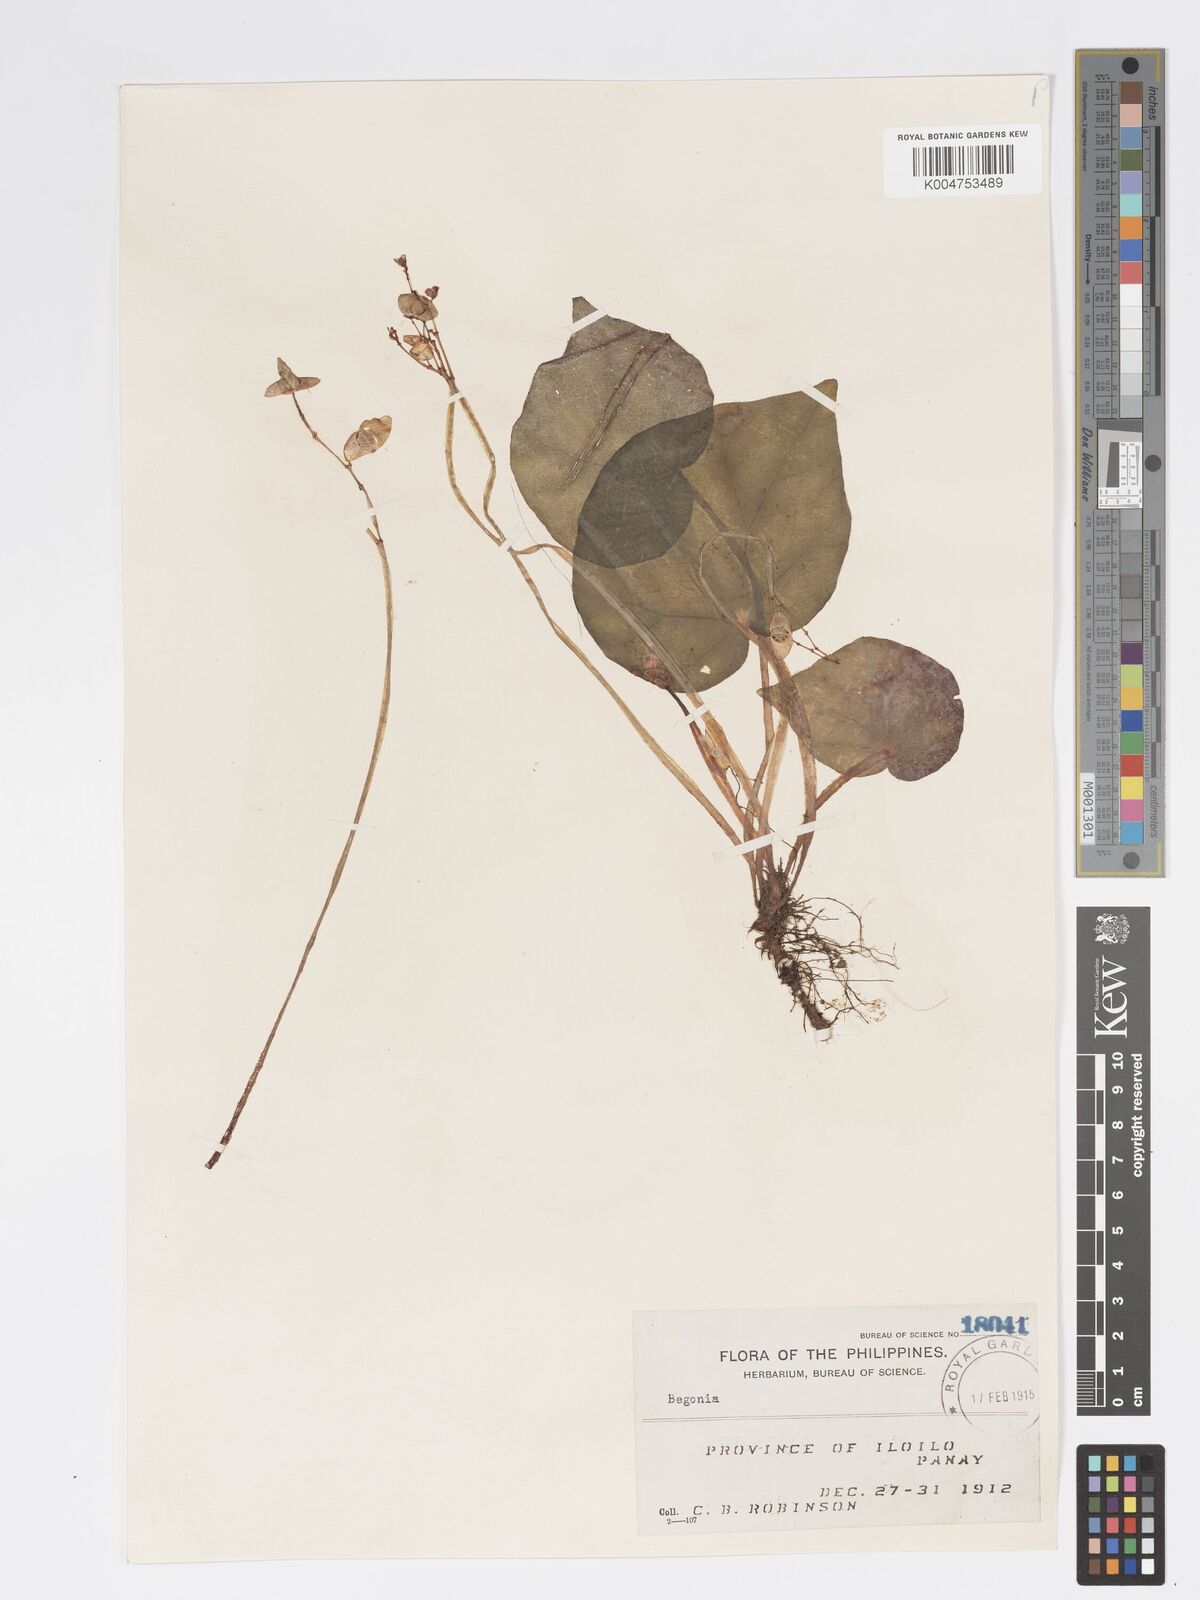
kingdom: Plantae
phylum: Tracheophyta
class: Magnoliopsida
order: Cucurbitales
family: Begoniaceae
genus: Begonia
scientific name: Begonia
